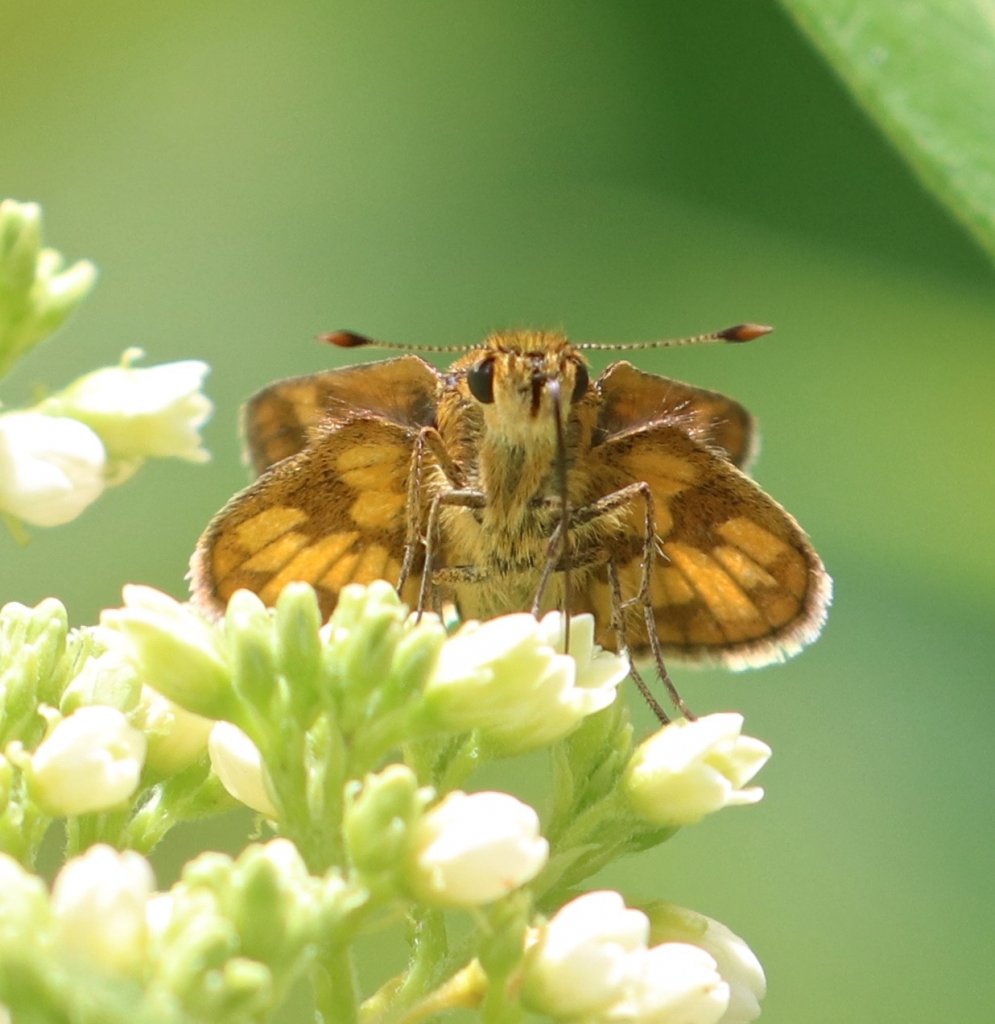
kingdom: Animalia
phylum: Arthropoda
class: Insecta
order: Lepidoptera
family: Hesperiidae
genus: Polites
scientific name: Polites coras
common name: Peck's Skipper
